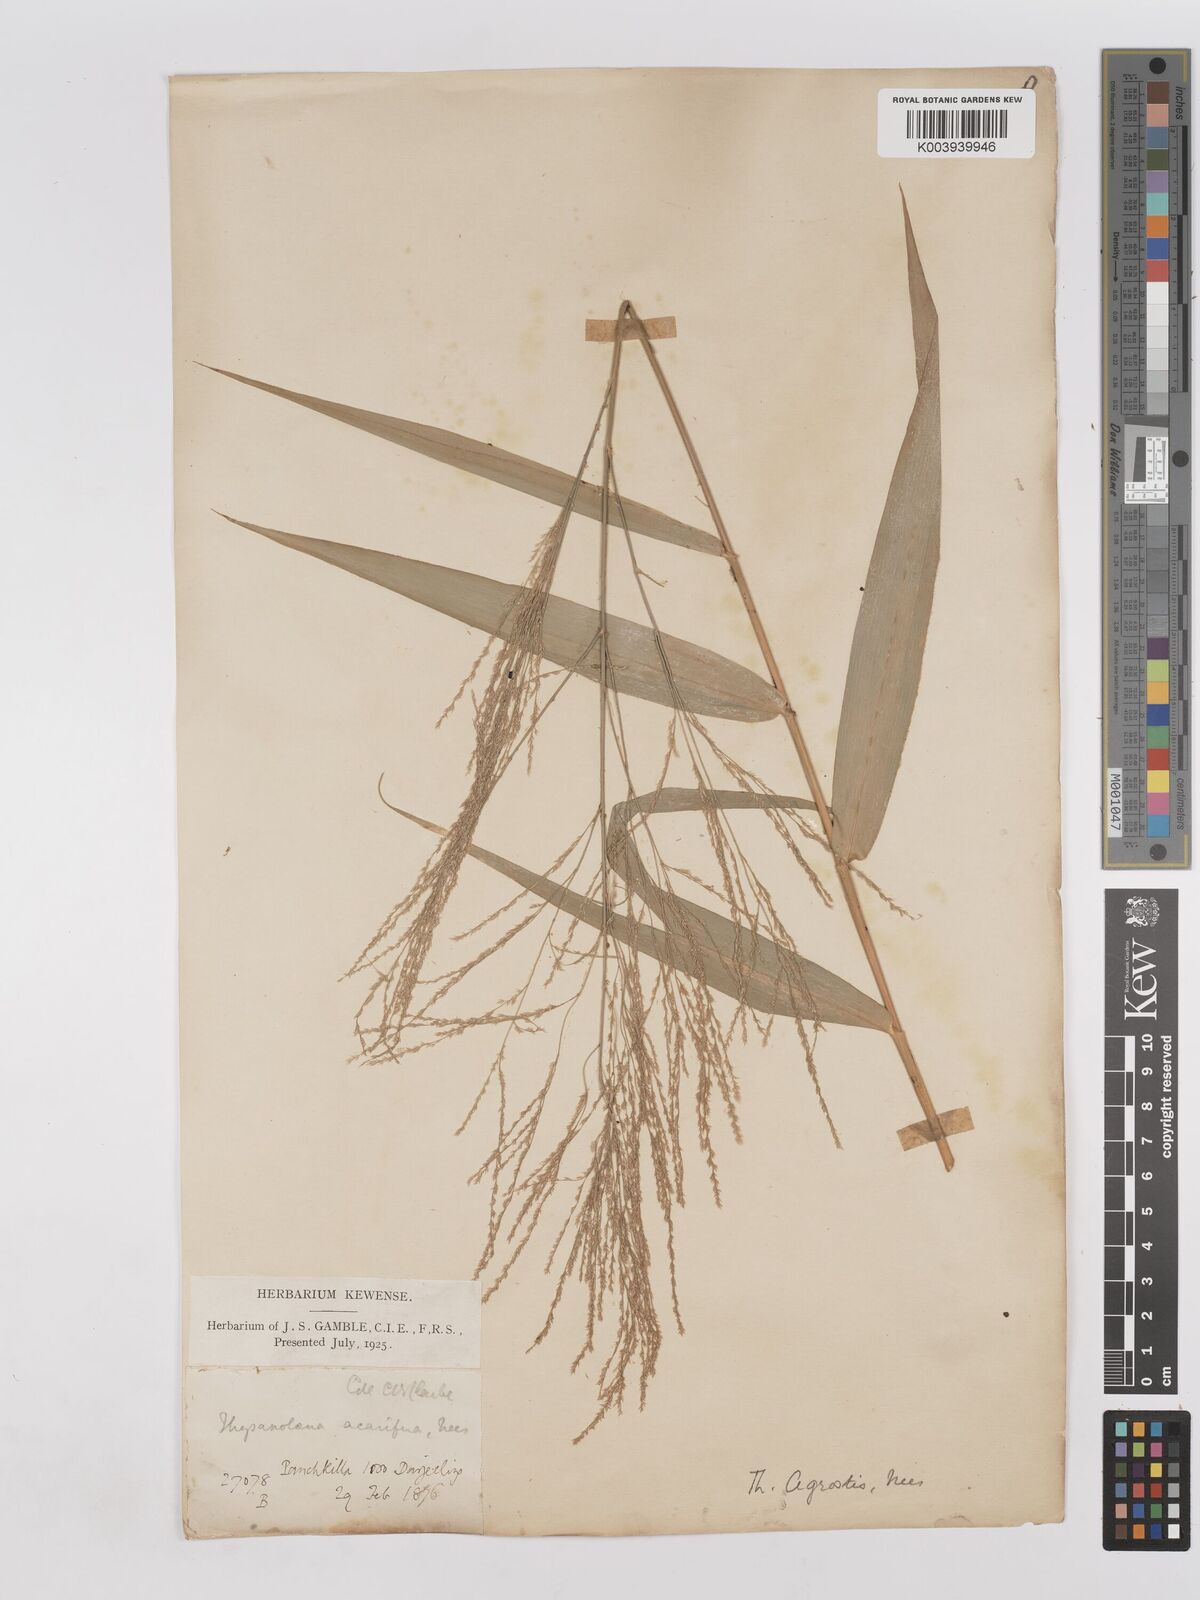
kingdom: Plantae
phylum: Tracheophyta
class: Liliopsida
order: Poales
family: Poaceae
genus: Thysanolaena
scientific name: Thysanolaena latifolia
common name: Tiger grass
